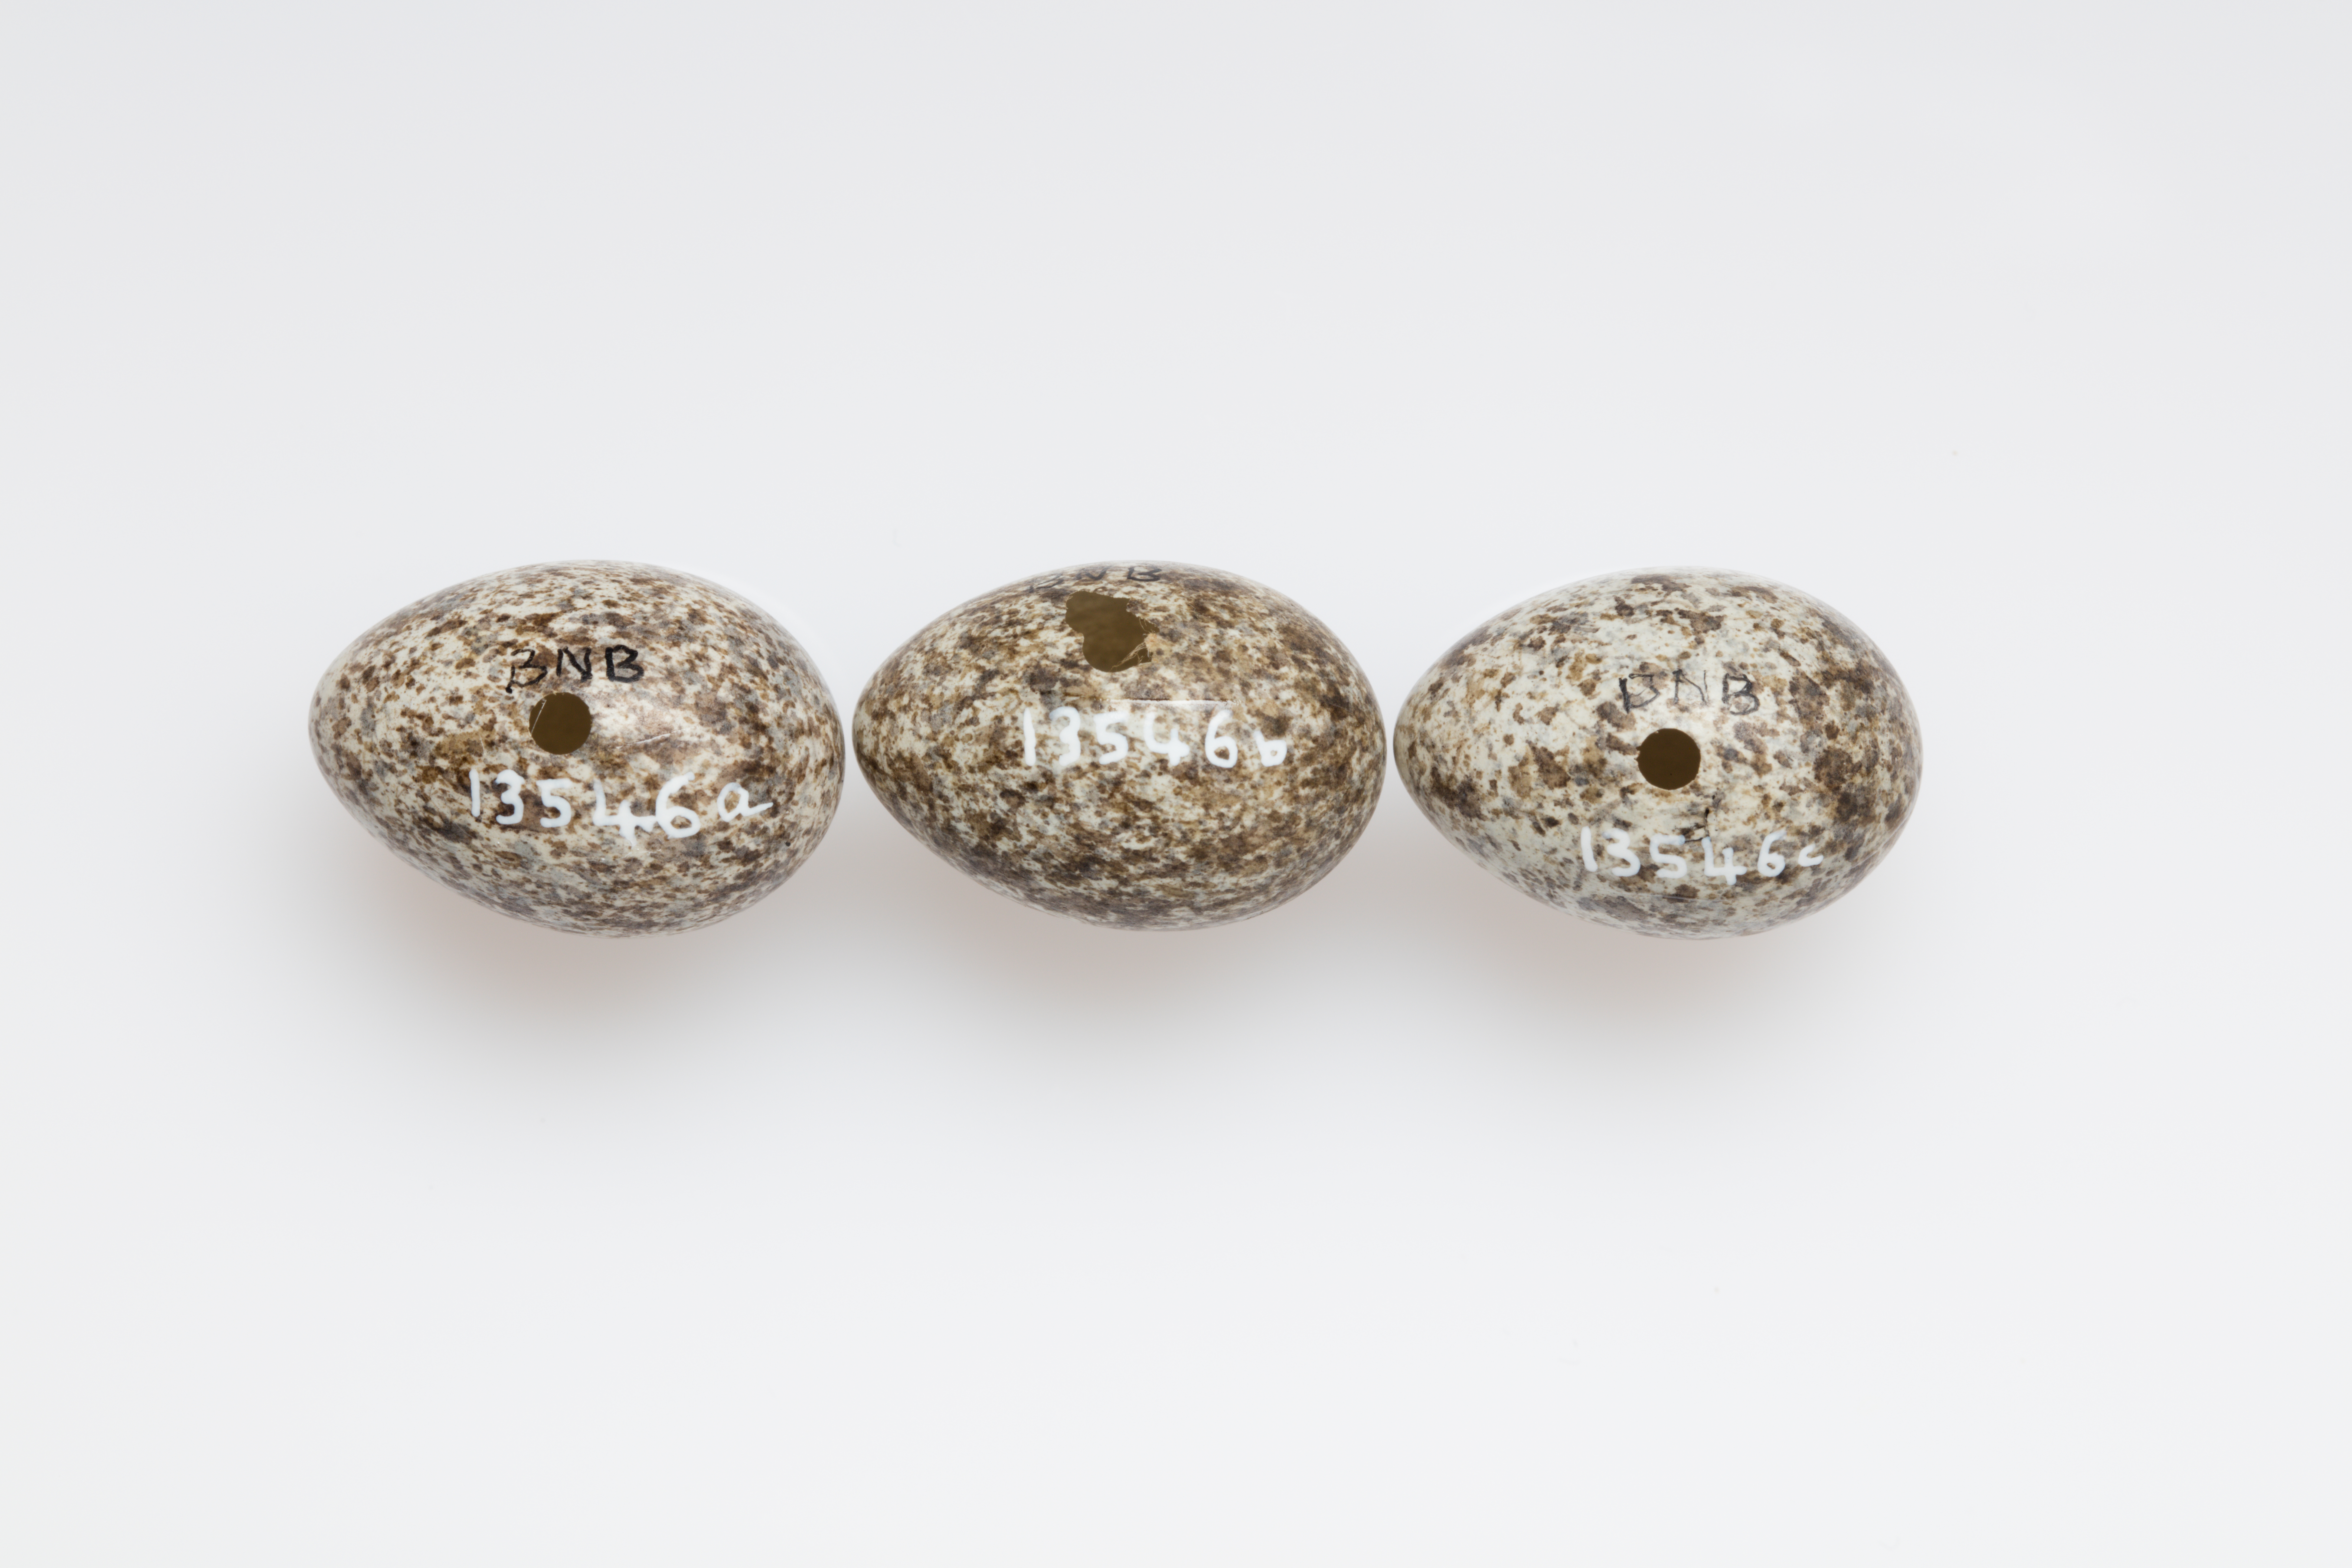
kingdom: Animalia
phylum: Chordata
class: Aves
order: Passeriformes
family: Motacillidae
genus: Anthus
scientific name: Anthus novaeseelandiae
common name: New zealand pipit
